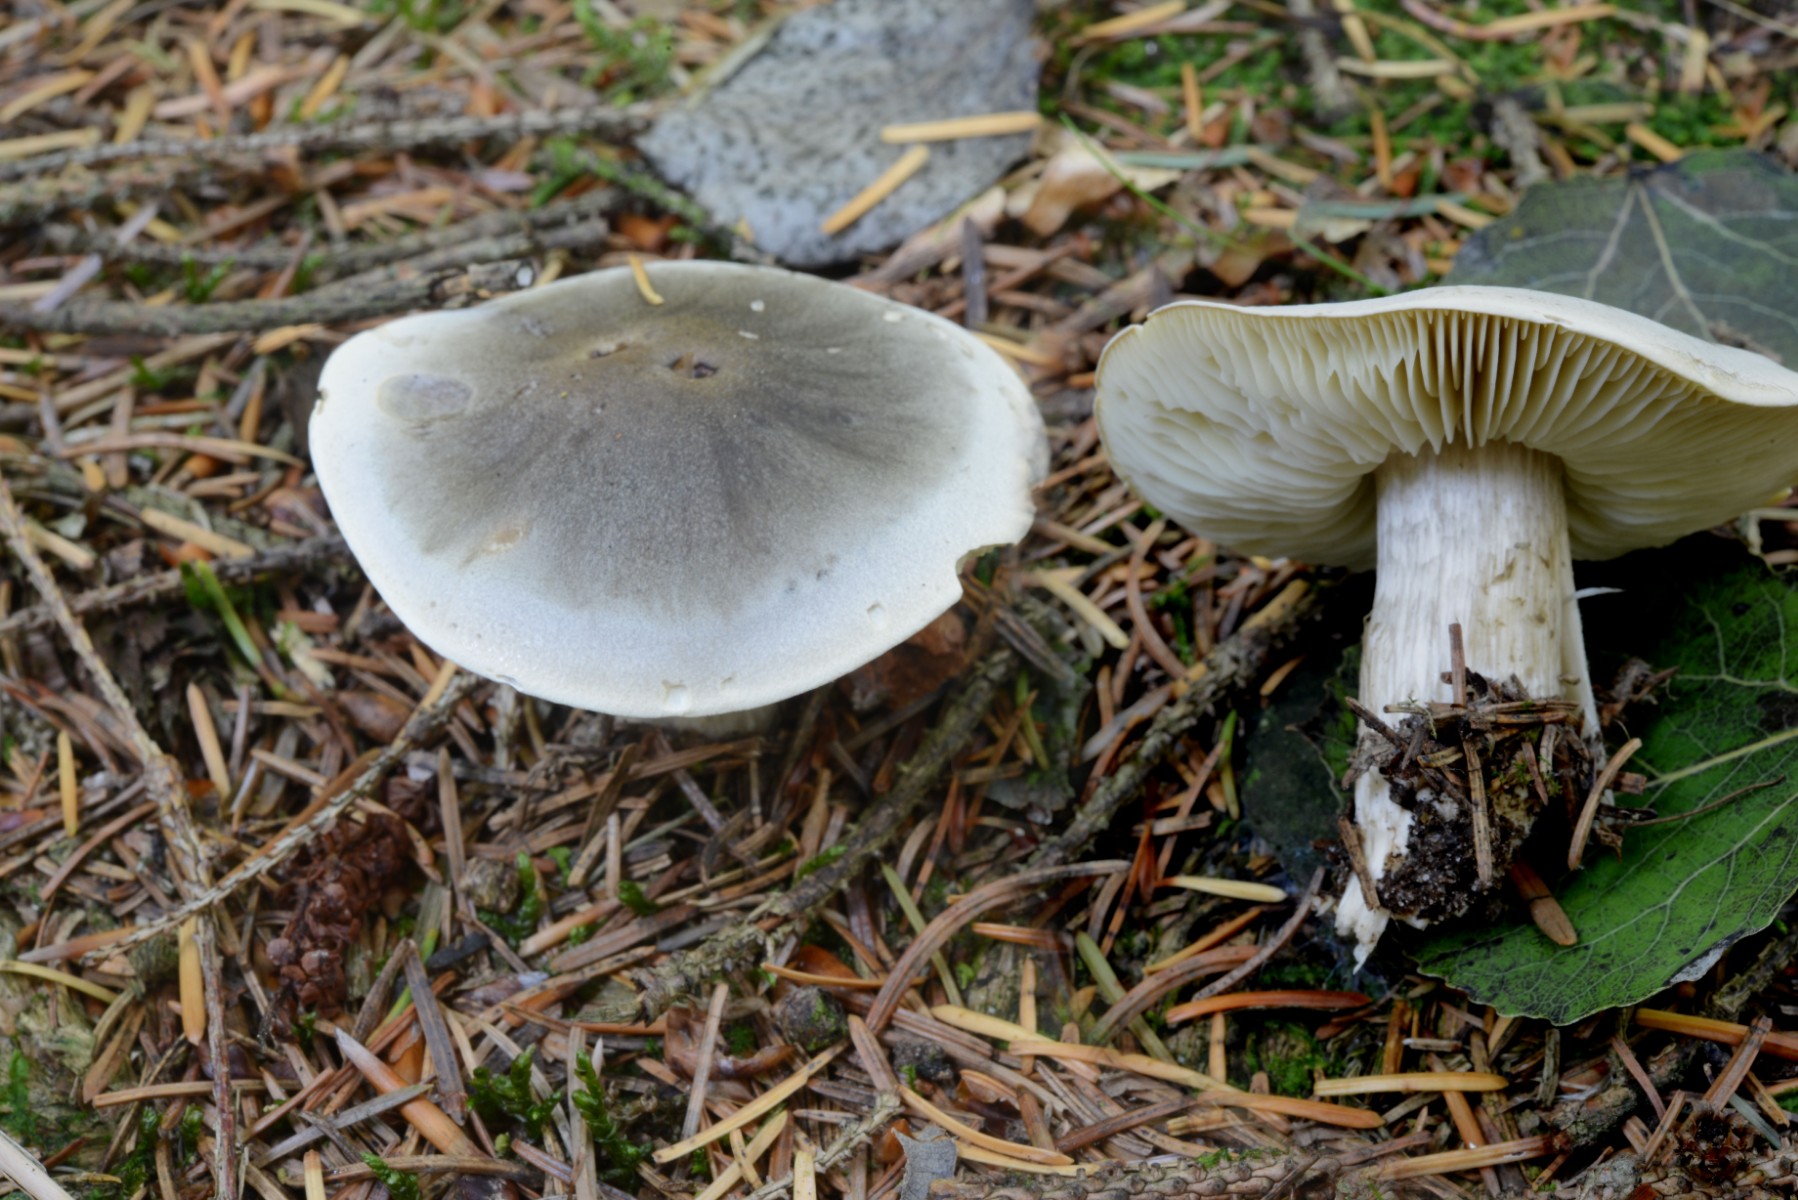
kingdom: Fungi
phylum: Basidiomycota
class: Agaricomycetes
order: Agaricales
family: Tricholomataceae
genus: Tricholoma
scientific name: Tricholoma saponaceum
